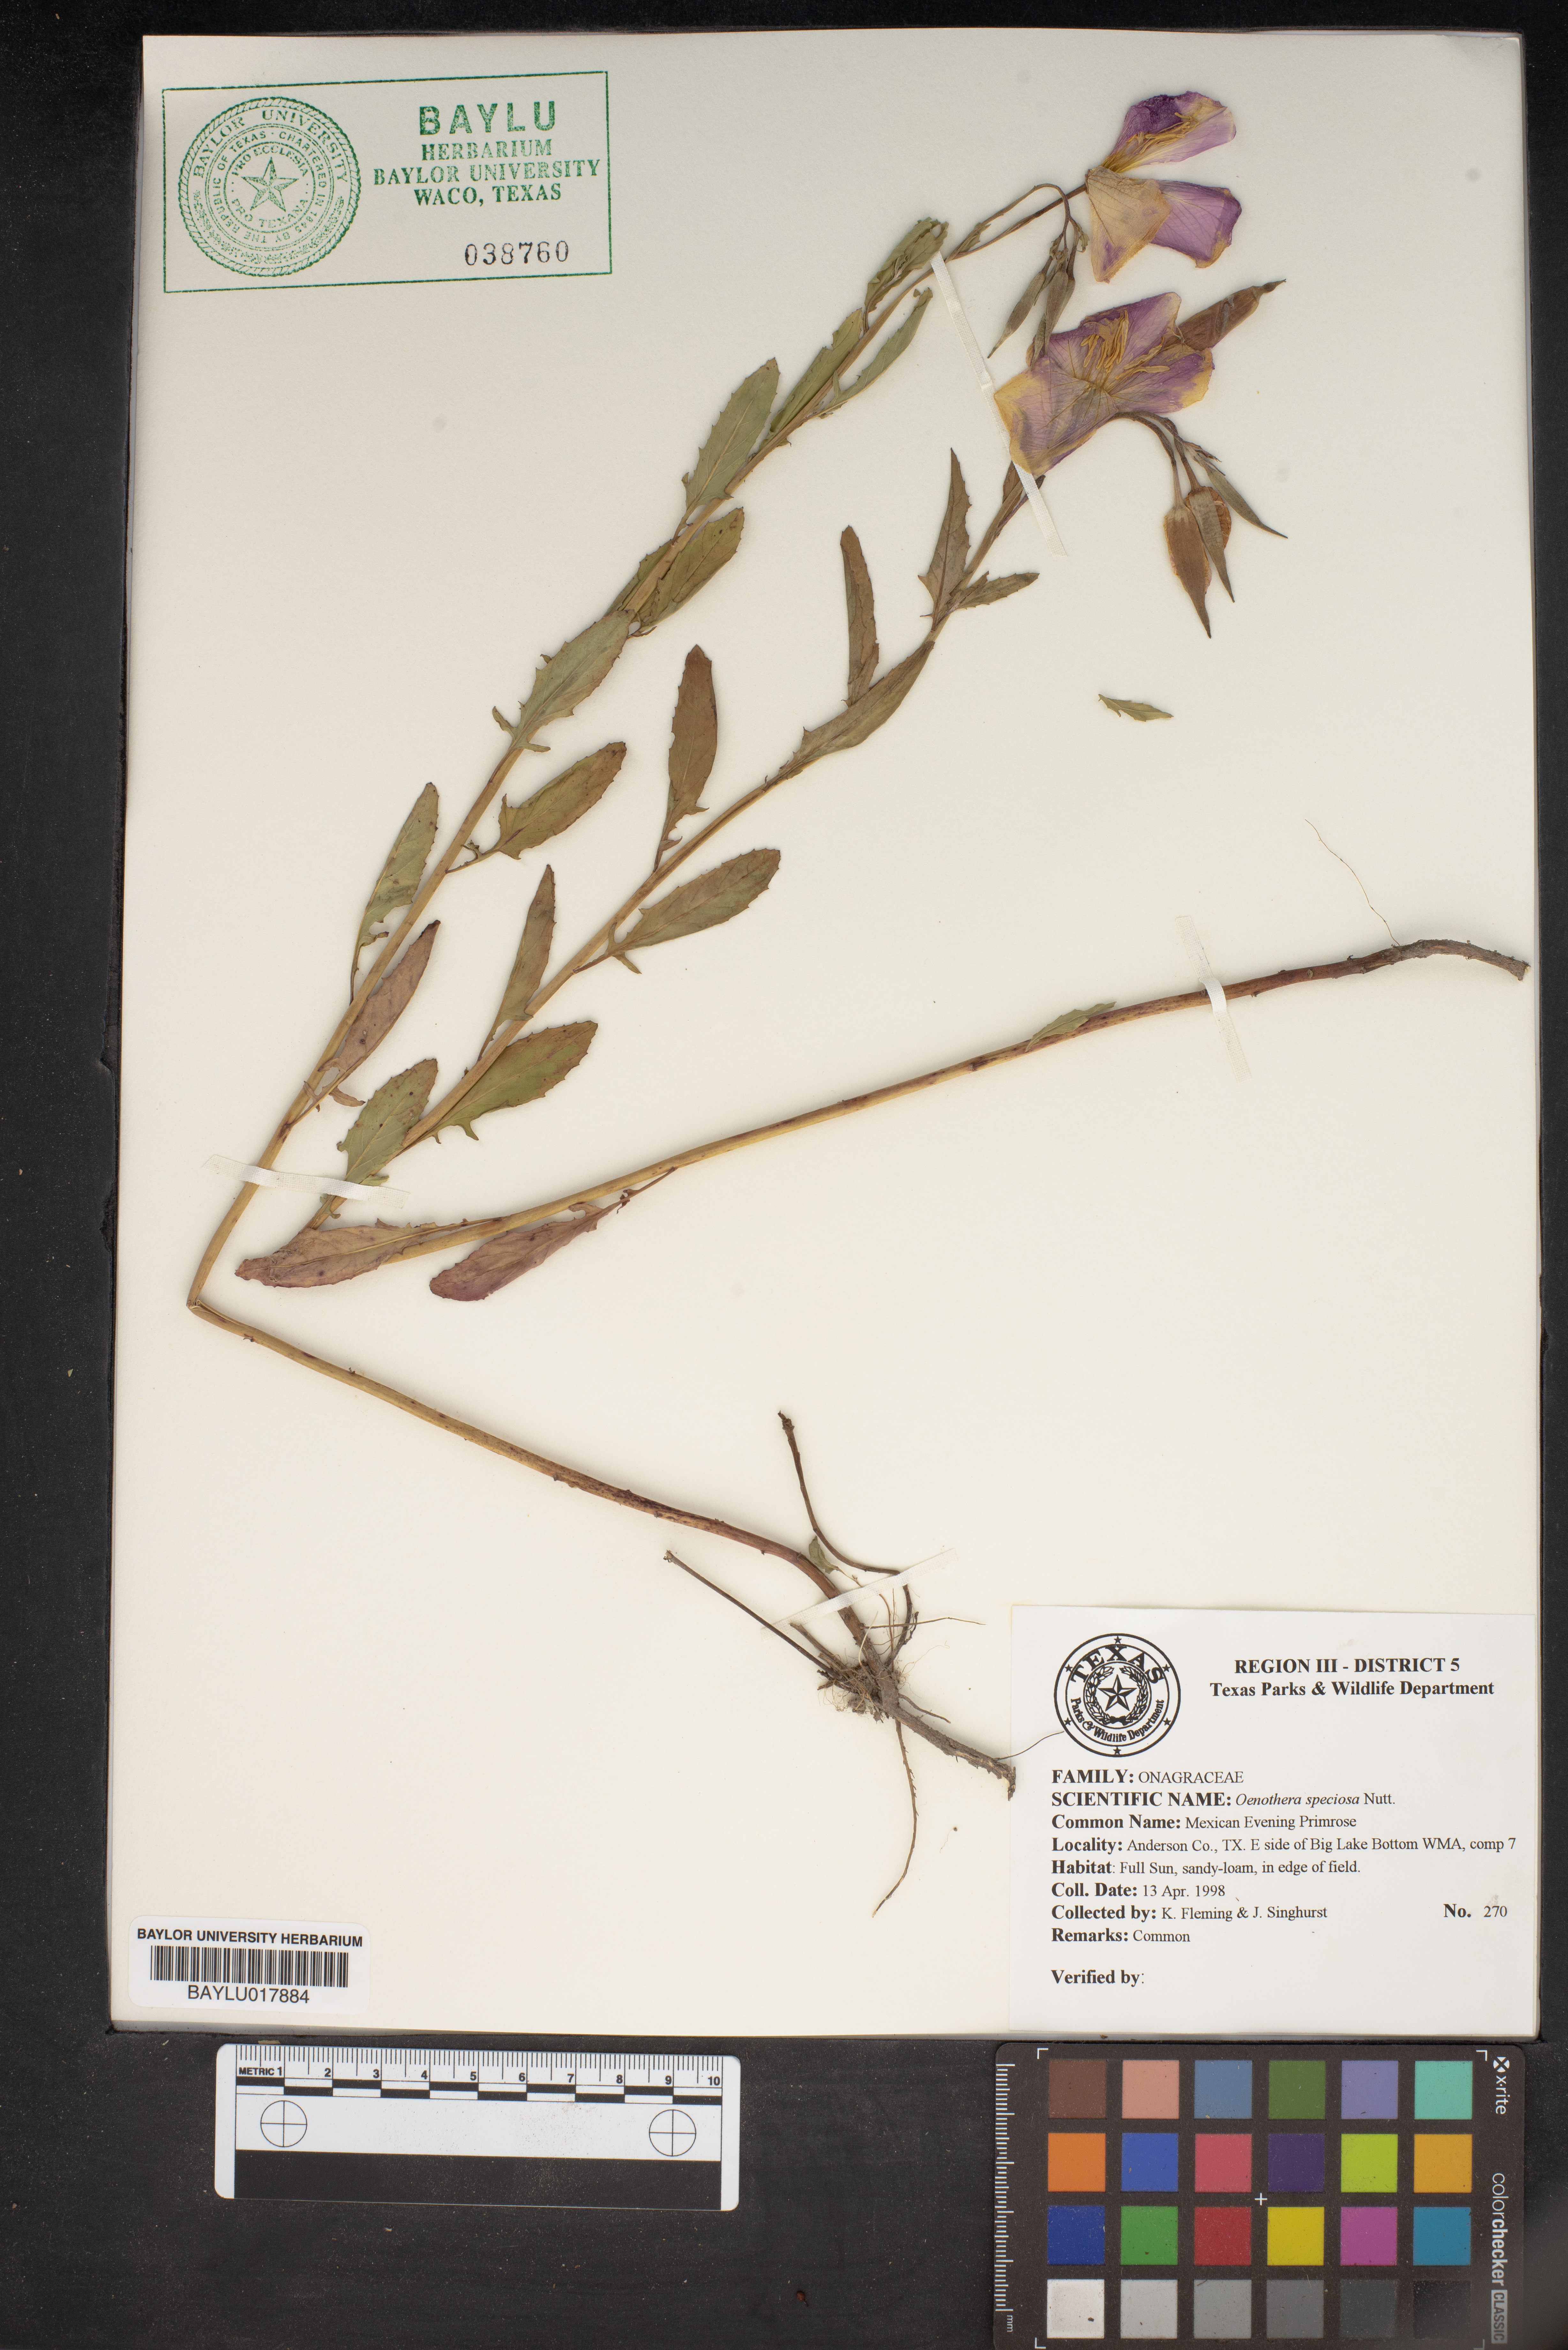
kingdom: Plantae
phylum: Tracheophyta
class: Magnoliopsida
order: Myrtales
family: Onagraceae
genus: Oenothera
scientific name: Oenothera speciosa
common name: White evening-primrose
